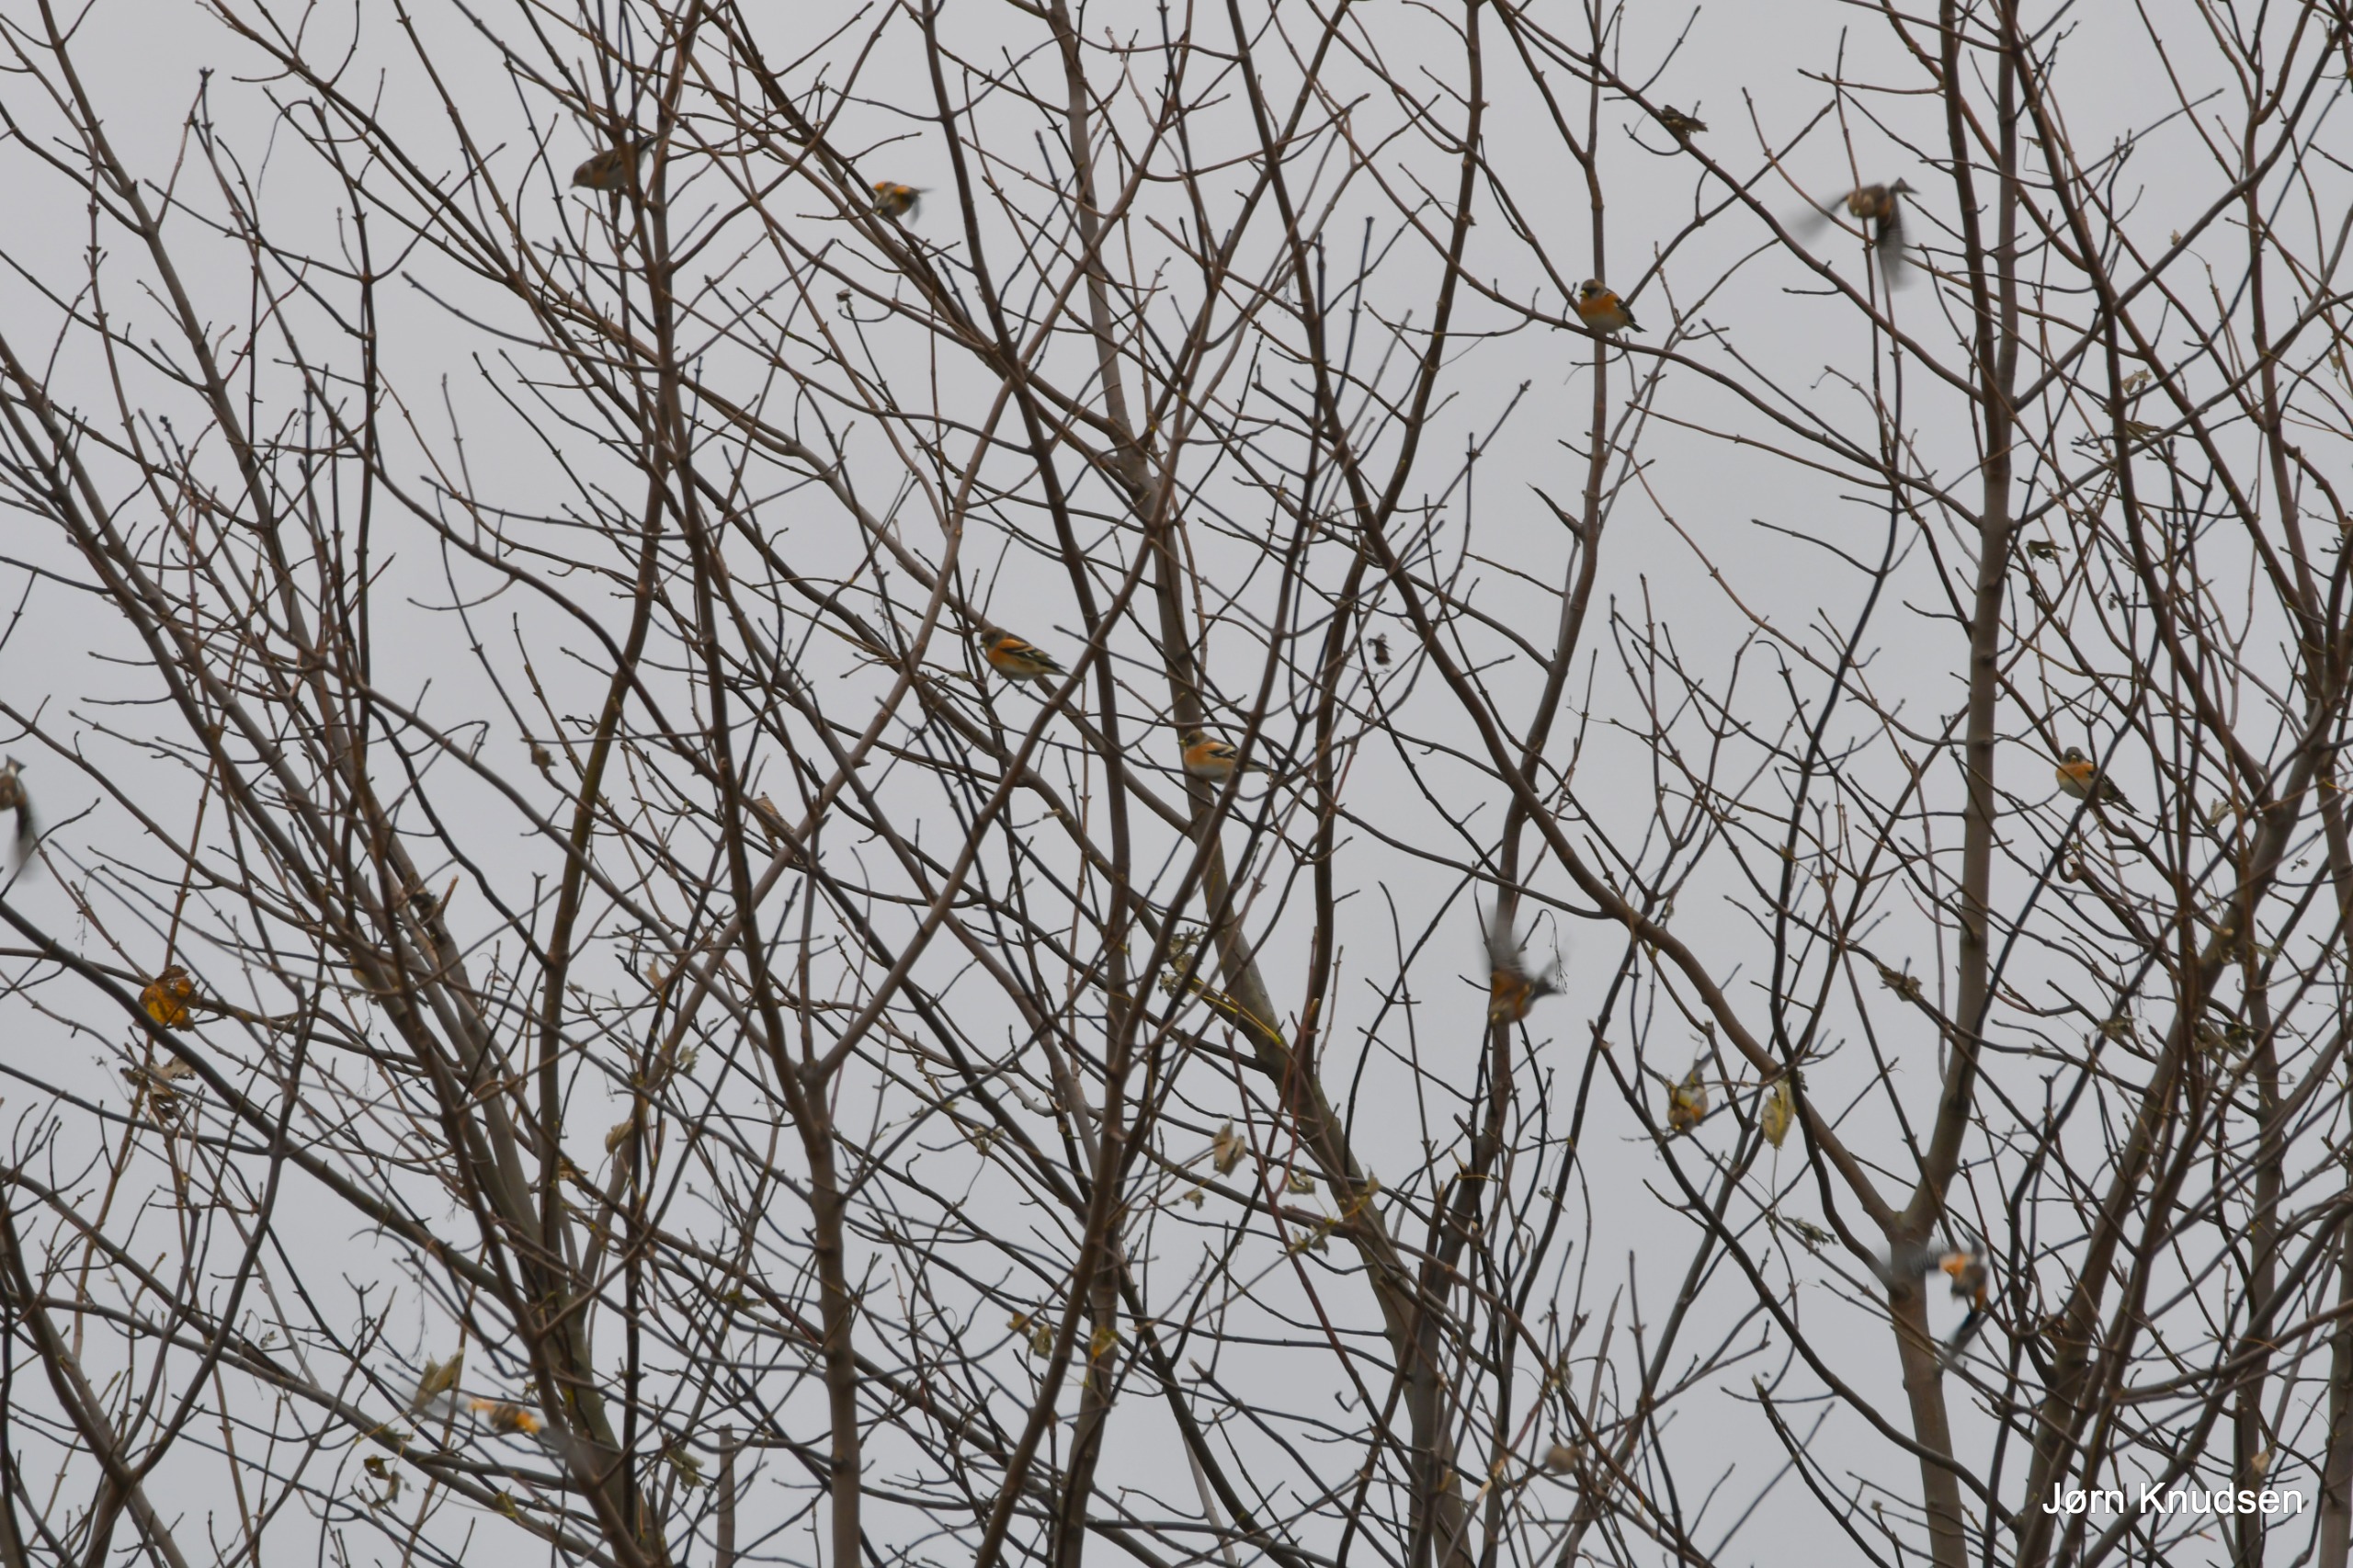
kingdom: Animalia
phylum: Chordata
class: Aves
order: Passeriformes
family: Fringillidae
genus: Fringilla
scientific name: Fringilla montifringilla
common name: Kvækerfinke
